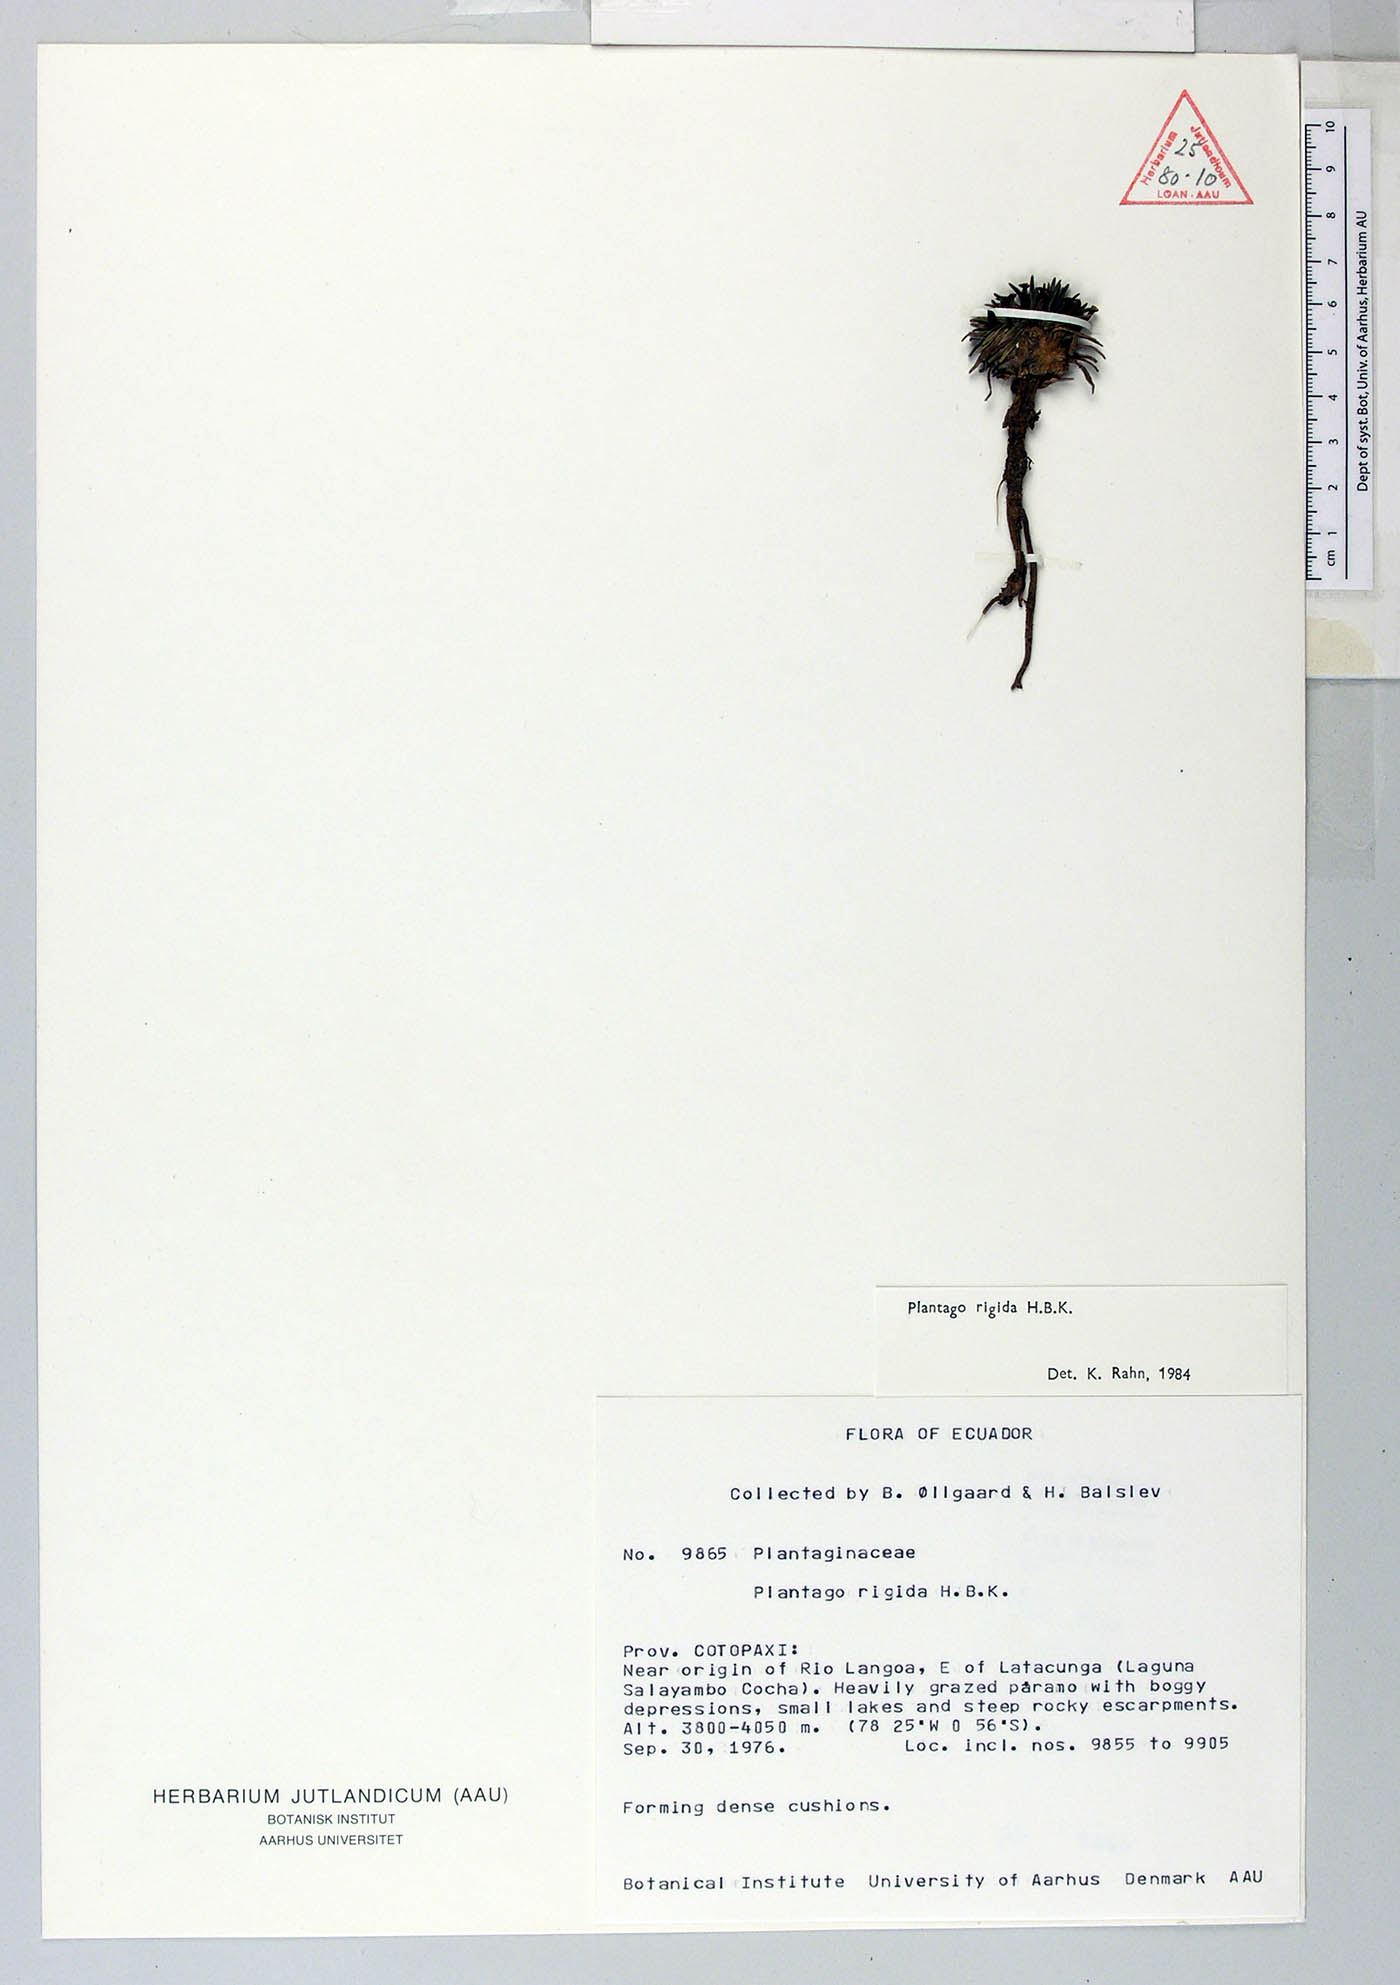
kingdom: Plantae
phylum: Tracheophyta
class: Magnoliopsida
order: Lamiales
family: Plantaginaceae
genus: Plantago
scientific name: Plantago rigida
